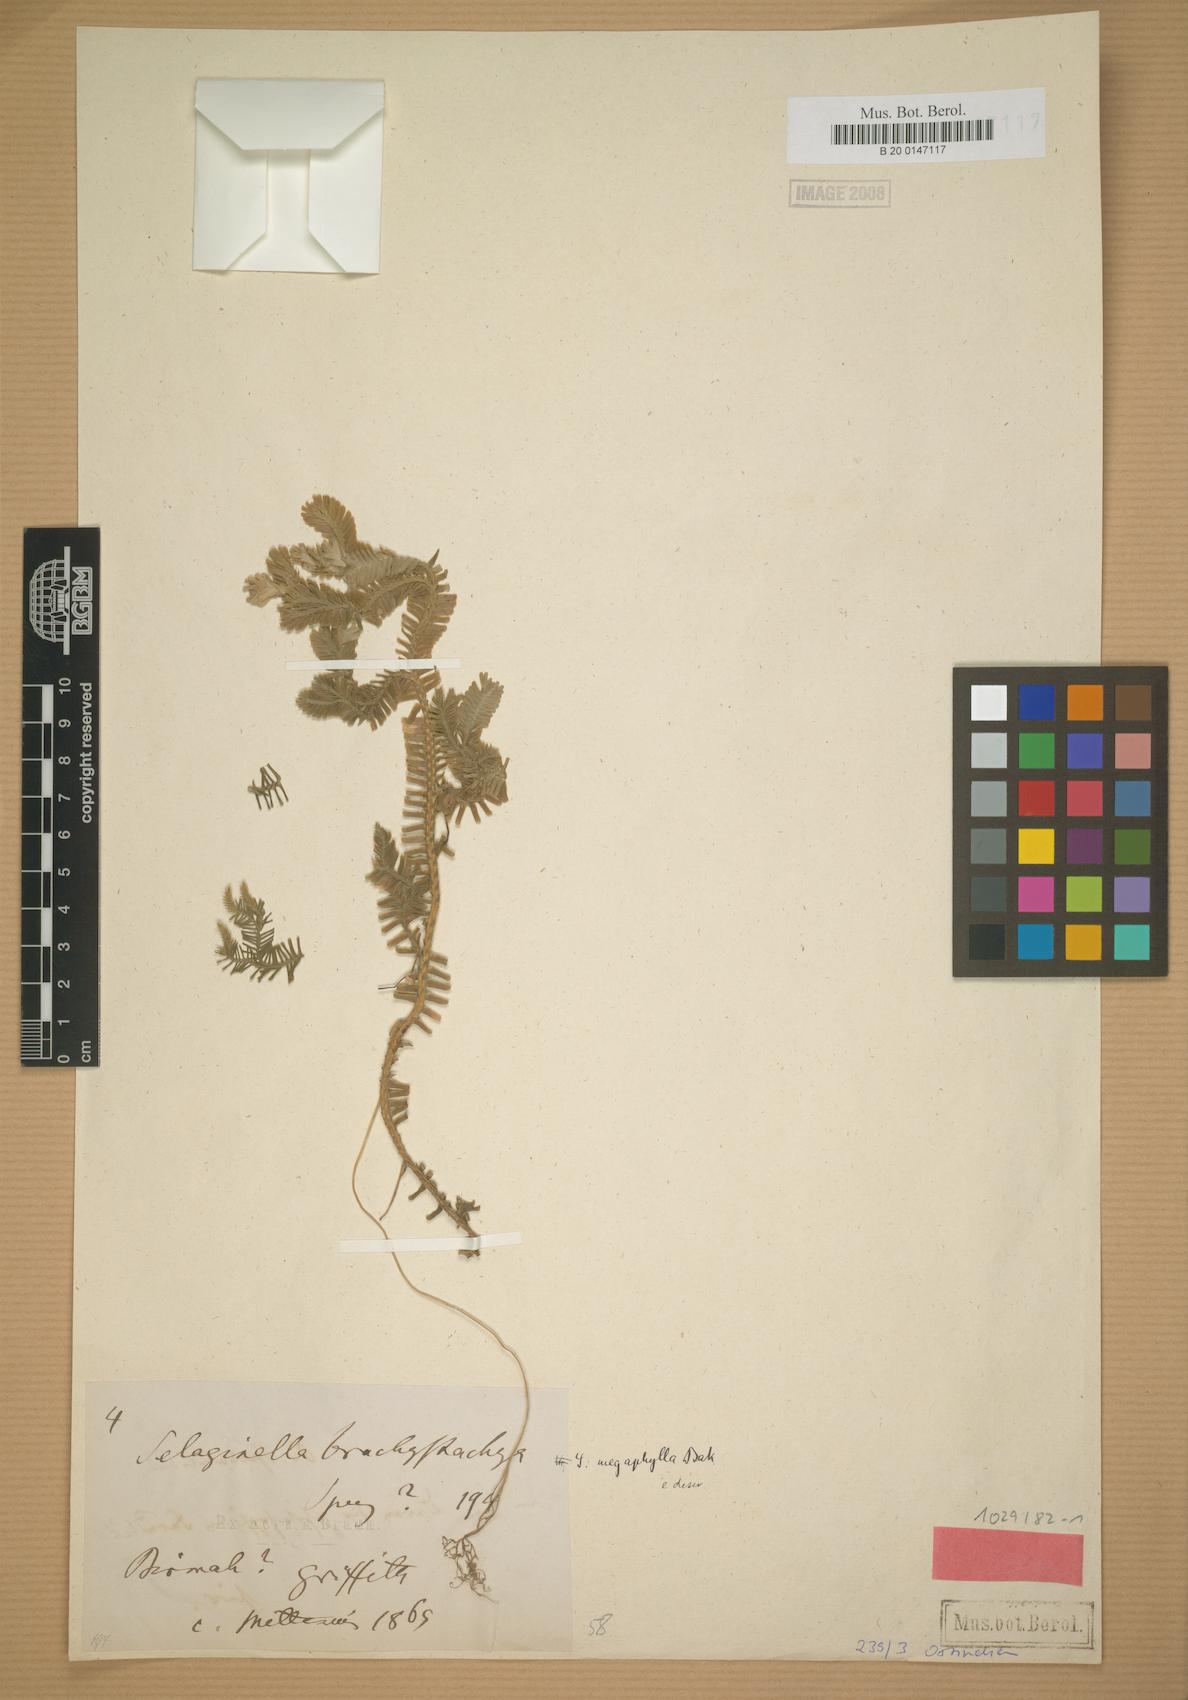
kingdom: Plantae
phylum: Tracheophyta
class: Lycopodiopsida
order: Selaginellales
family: Selaginellaceae
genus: Selaginella
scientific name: Selaginella megaphylla
